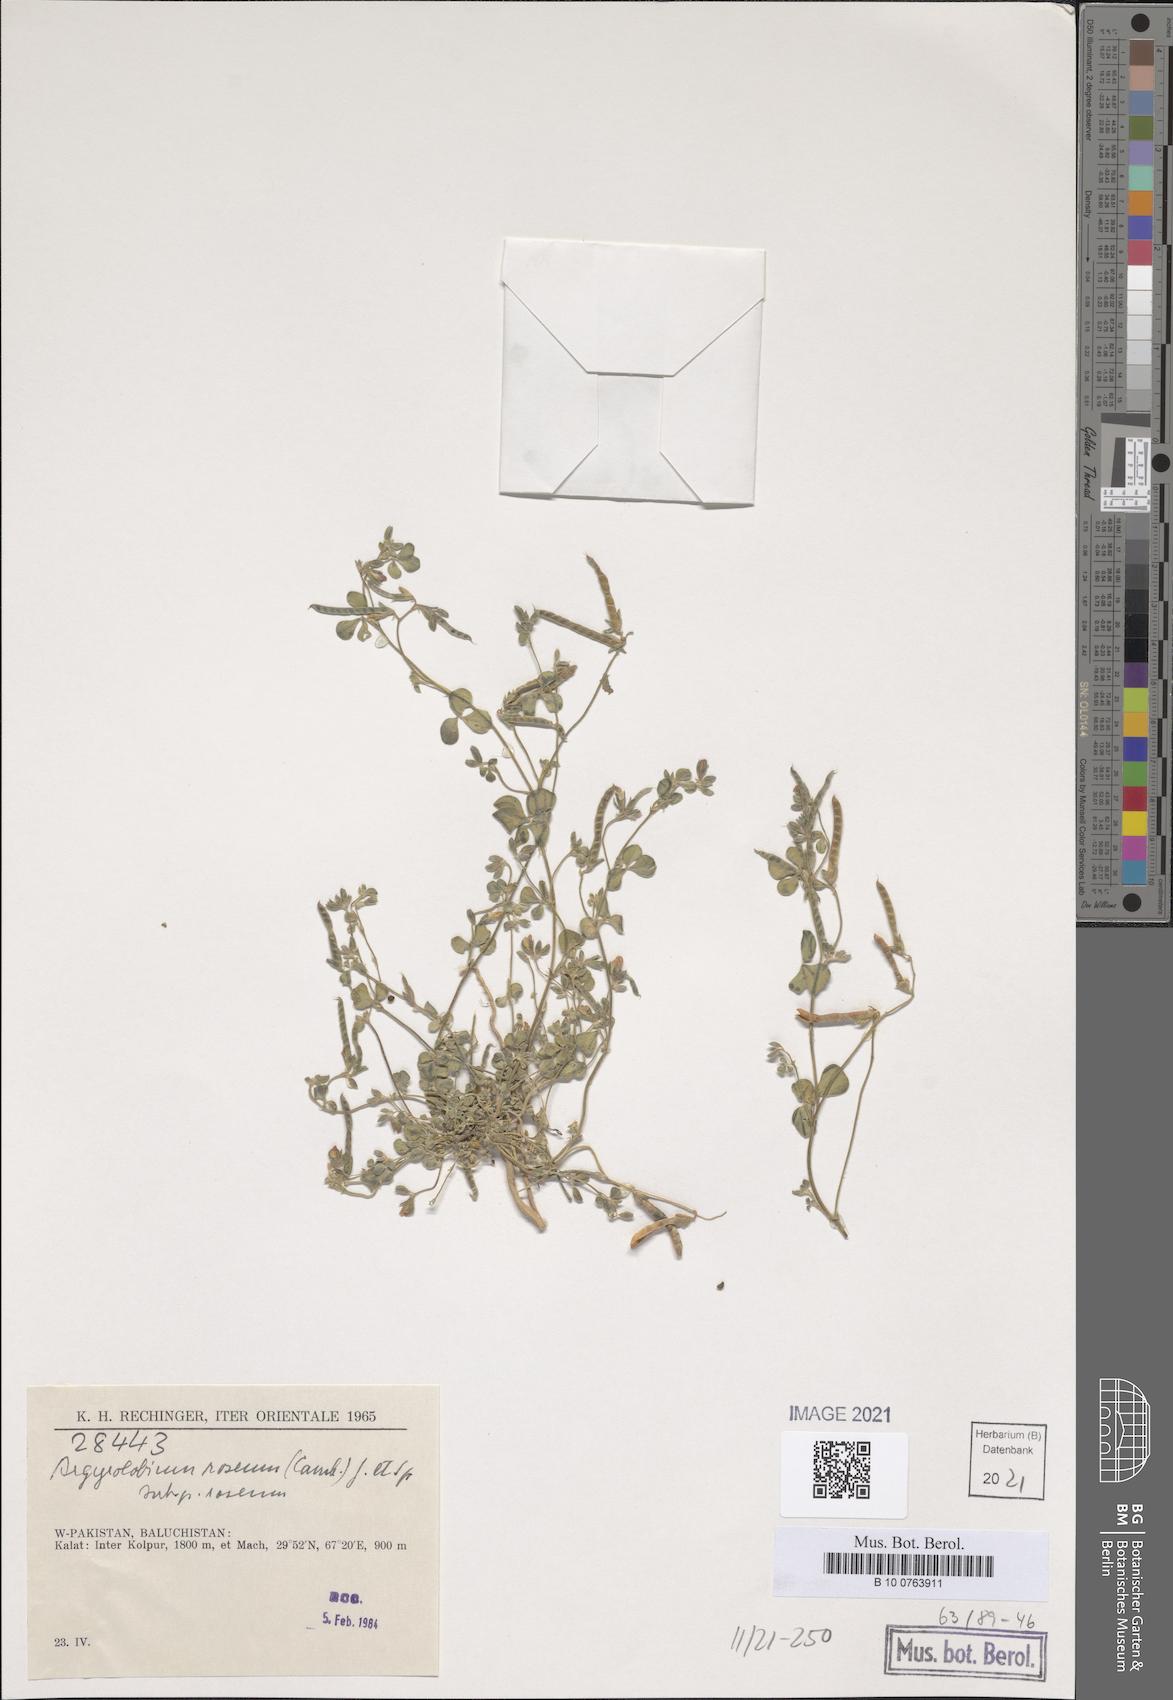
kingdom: Plantae
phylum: Tracheophyta
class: Magnoliopsida
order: Fabales
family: Fabaceae
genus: Argyrolobium
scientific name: Argyrolobium roseum
